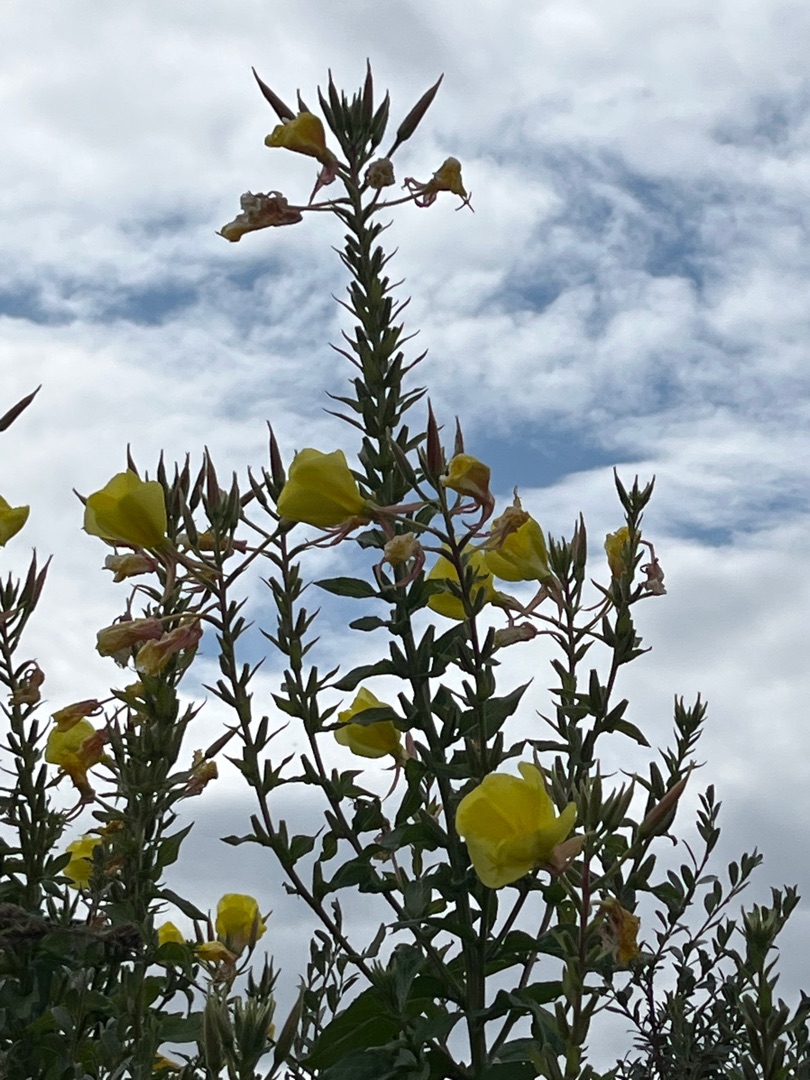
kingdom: Plantae
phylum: Tracheophyta
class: Magnoliopsida
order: Myrtales
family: Onagraceae
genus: Oenothera
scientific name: Oenothera glazioviana
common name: Kæmpe-natlys
